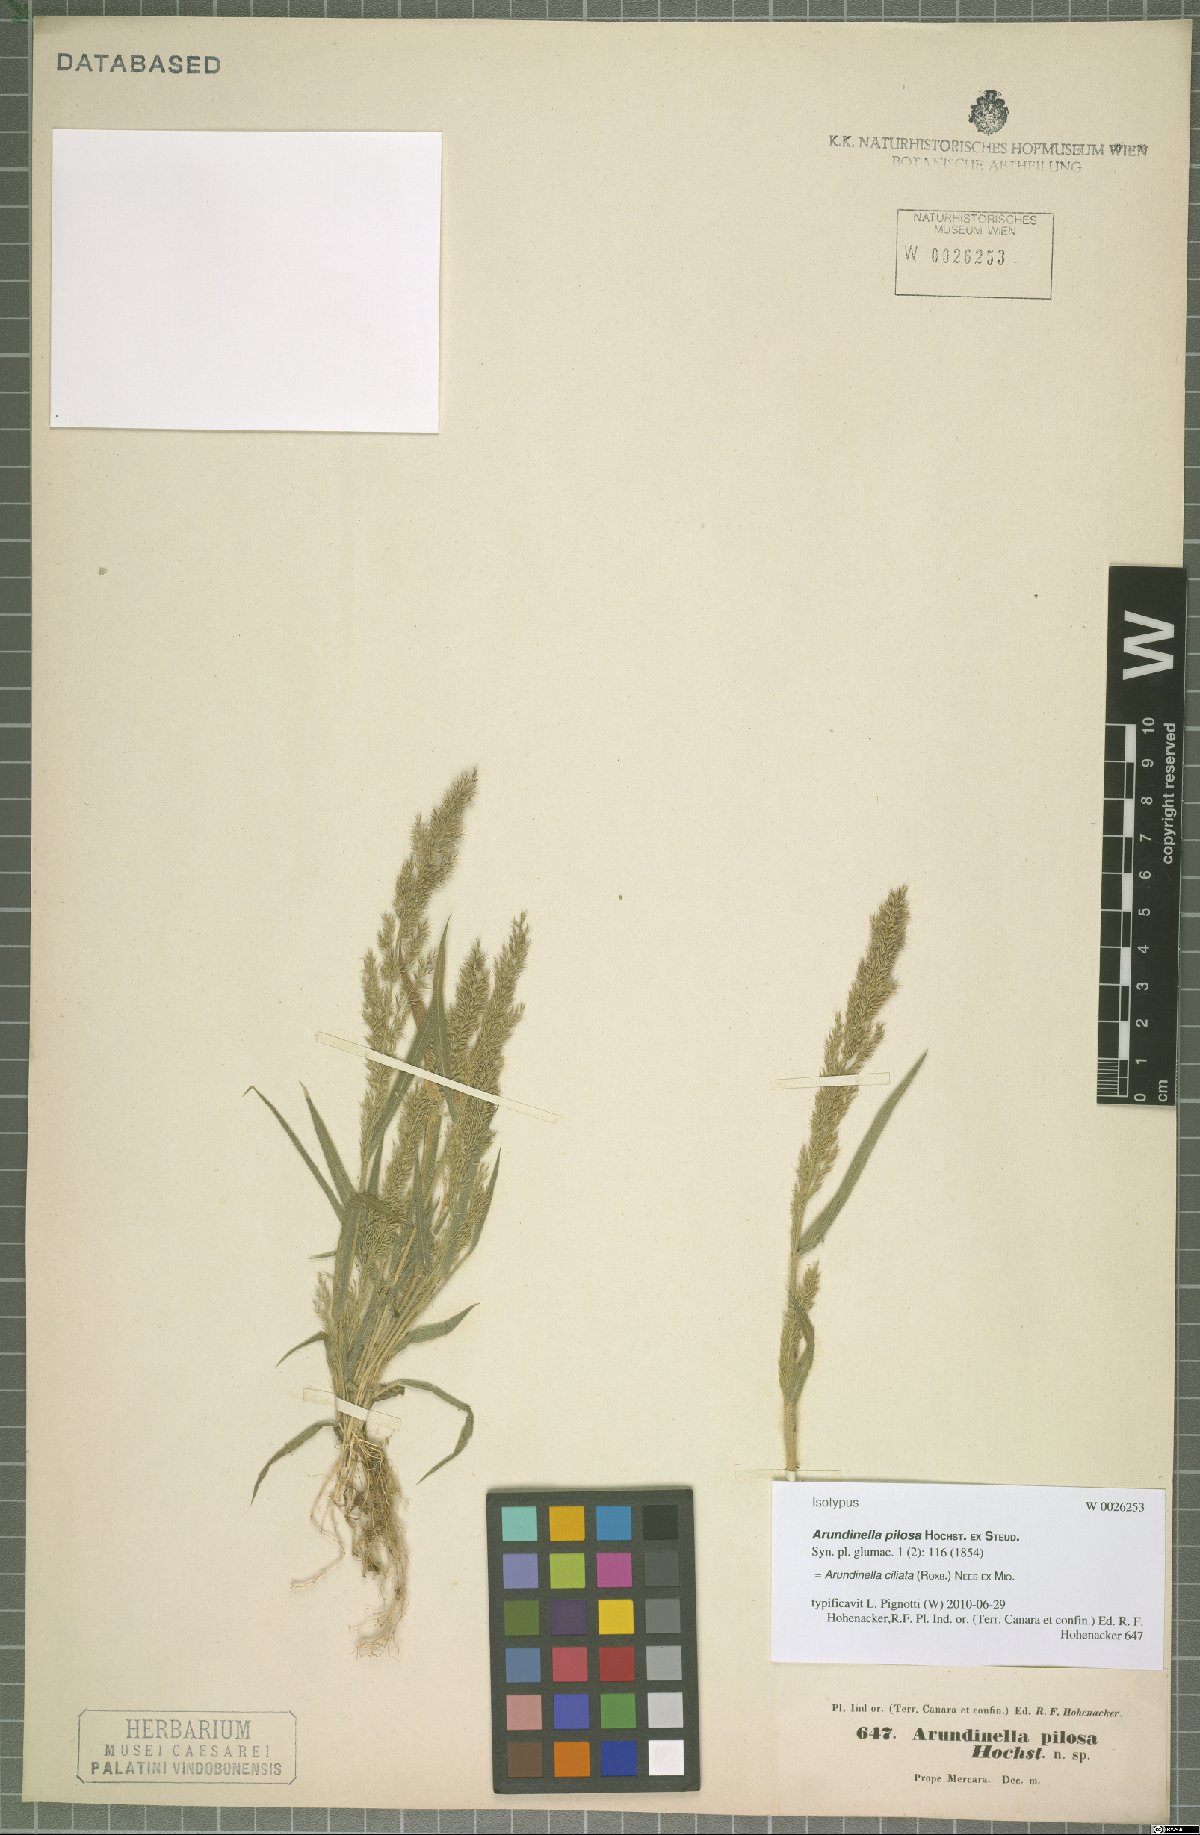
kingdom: Plantae
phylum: Tracheophyta
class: Liliopsida
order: Poales
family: Poaceae
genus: Arundinella
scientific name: Arundinella ciliata
